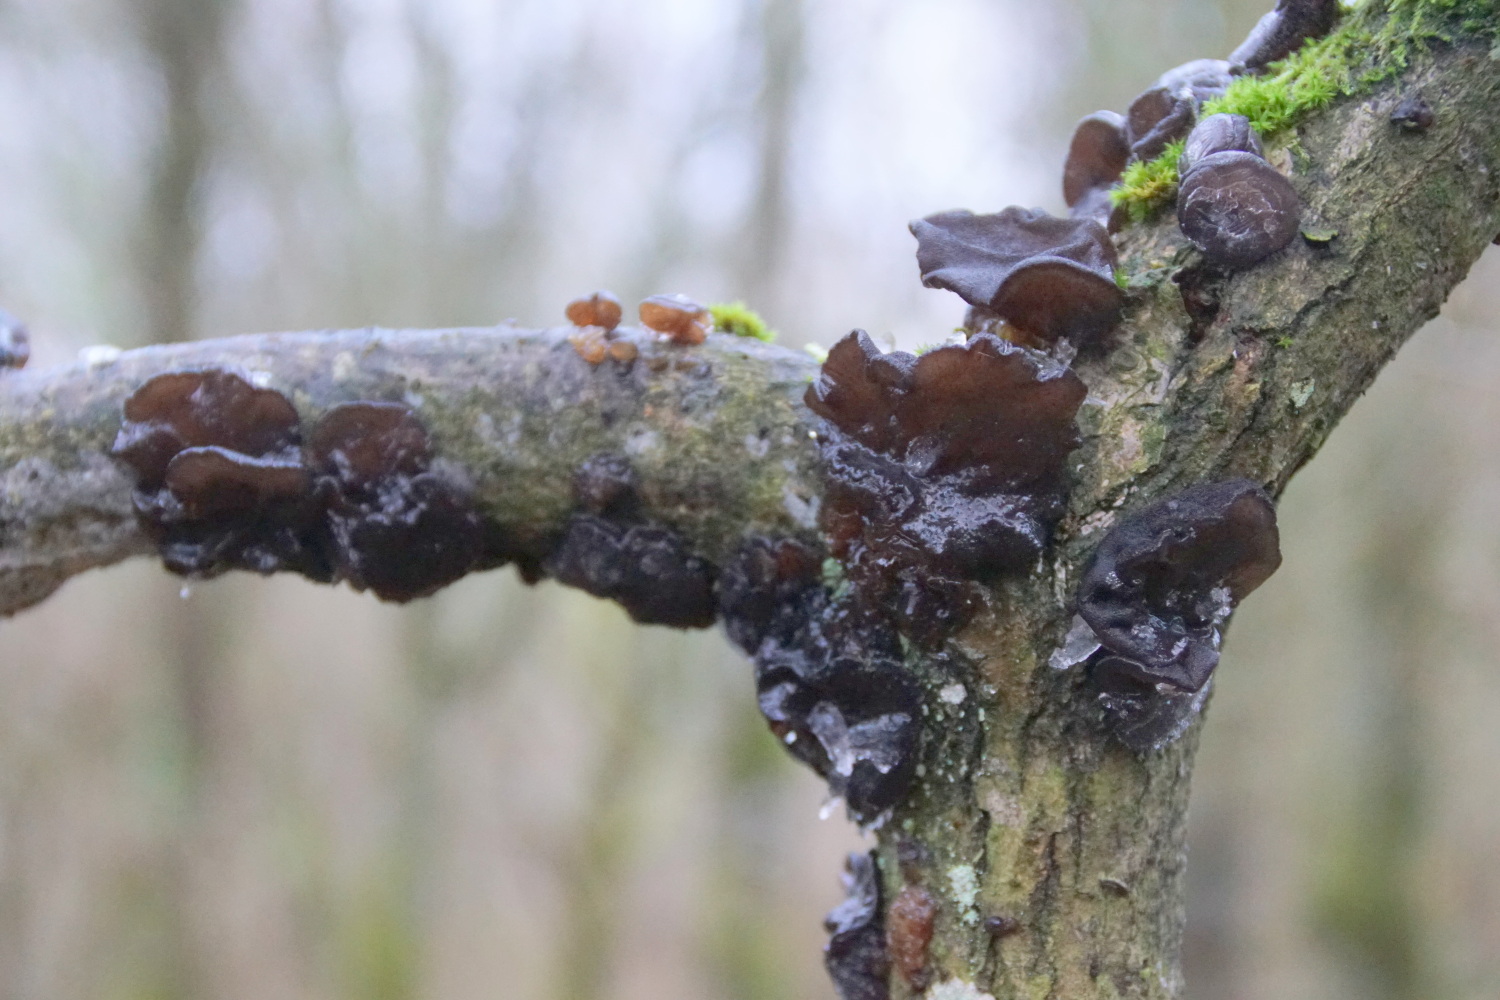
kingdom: Fungi
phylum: Basidiomycota
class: Agaricomycetes
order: Auriculariales
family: Auriculariaceae
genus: Exidia
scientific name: Exidia glandulosa
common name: ege-bævretop
